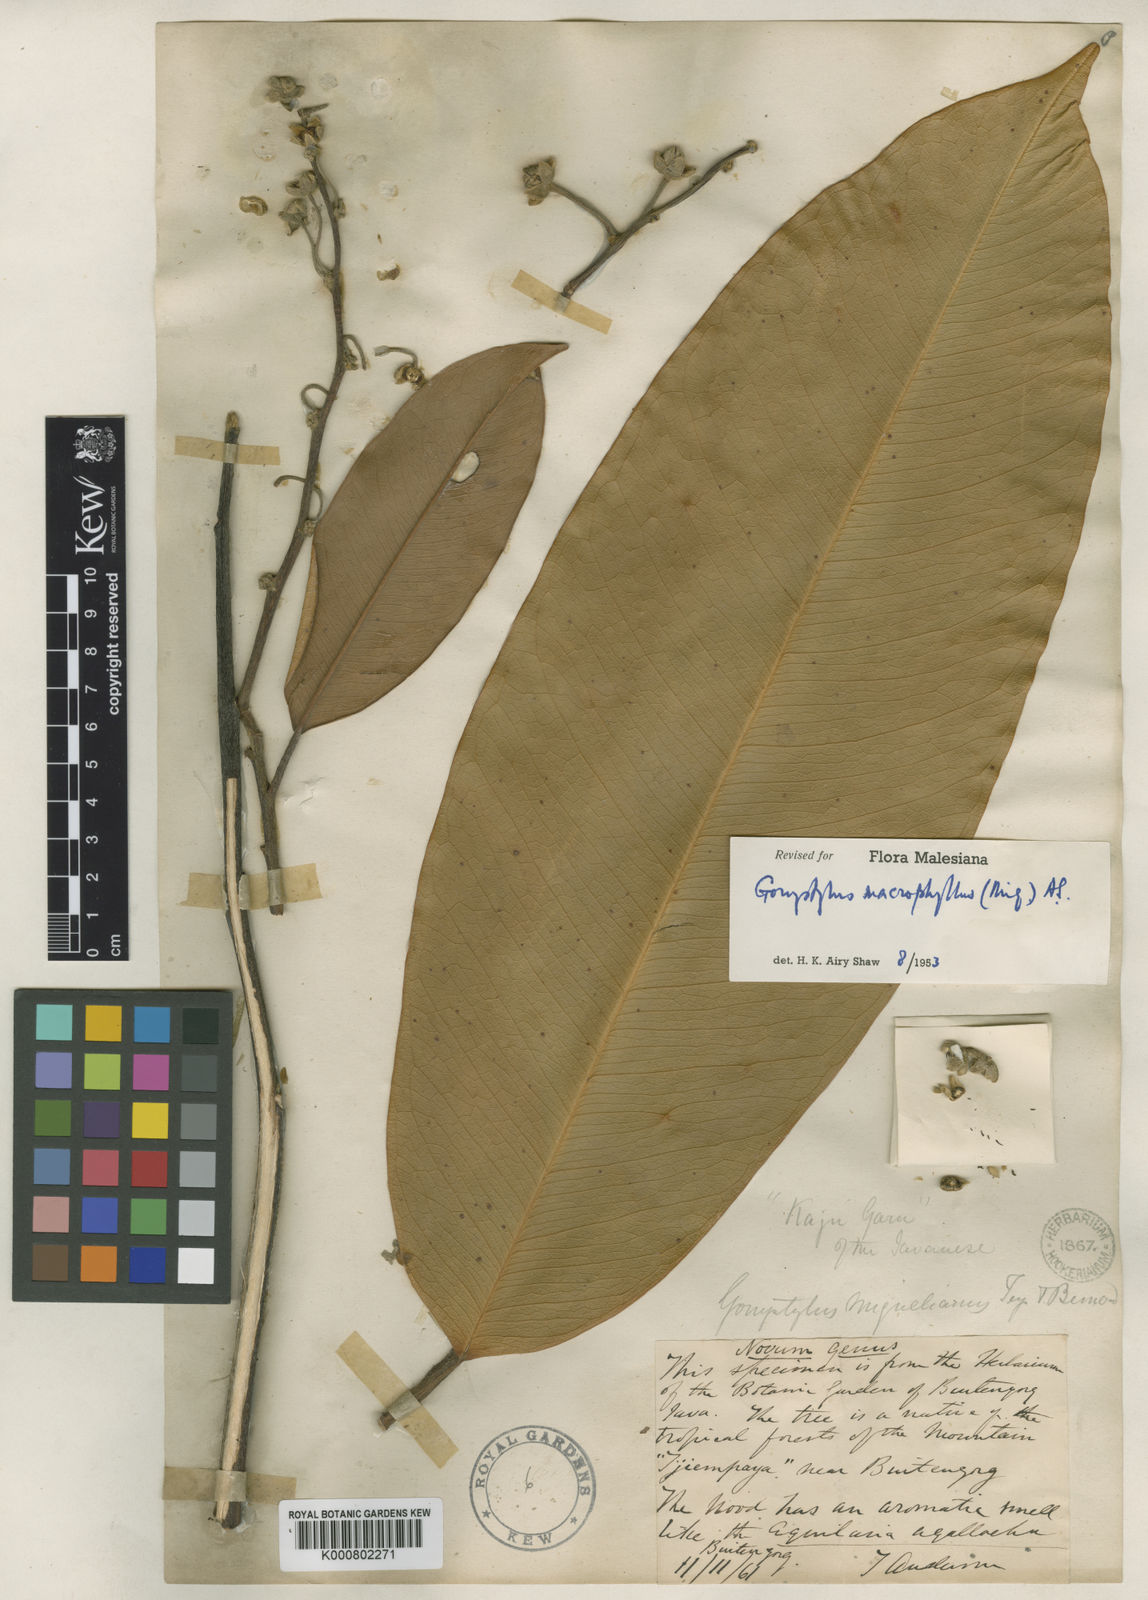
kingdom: Plantae
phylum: Tracheophyta
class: Magnoliopsida
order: Malvales
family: Thymelaeaceae
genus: Gonystylus
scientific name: Gonystylus macrophyllus
